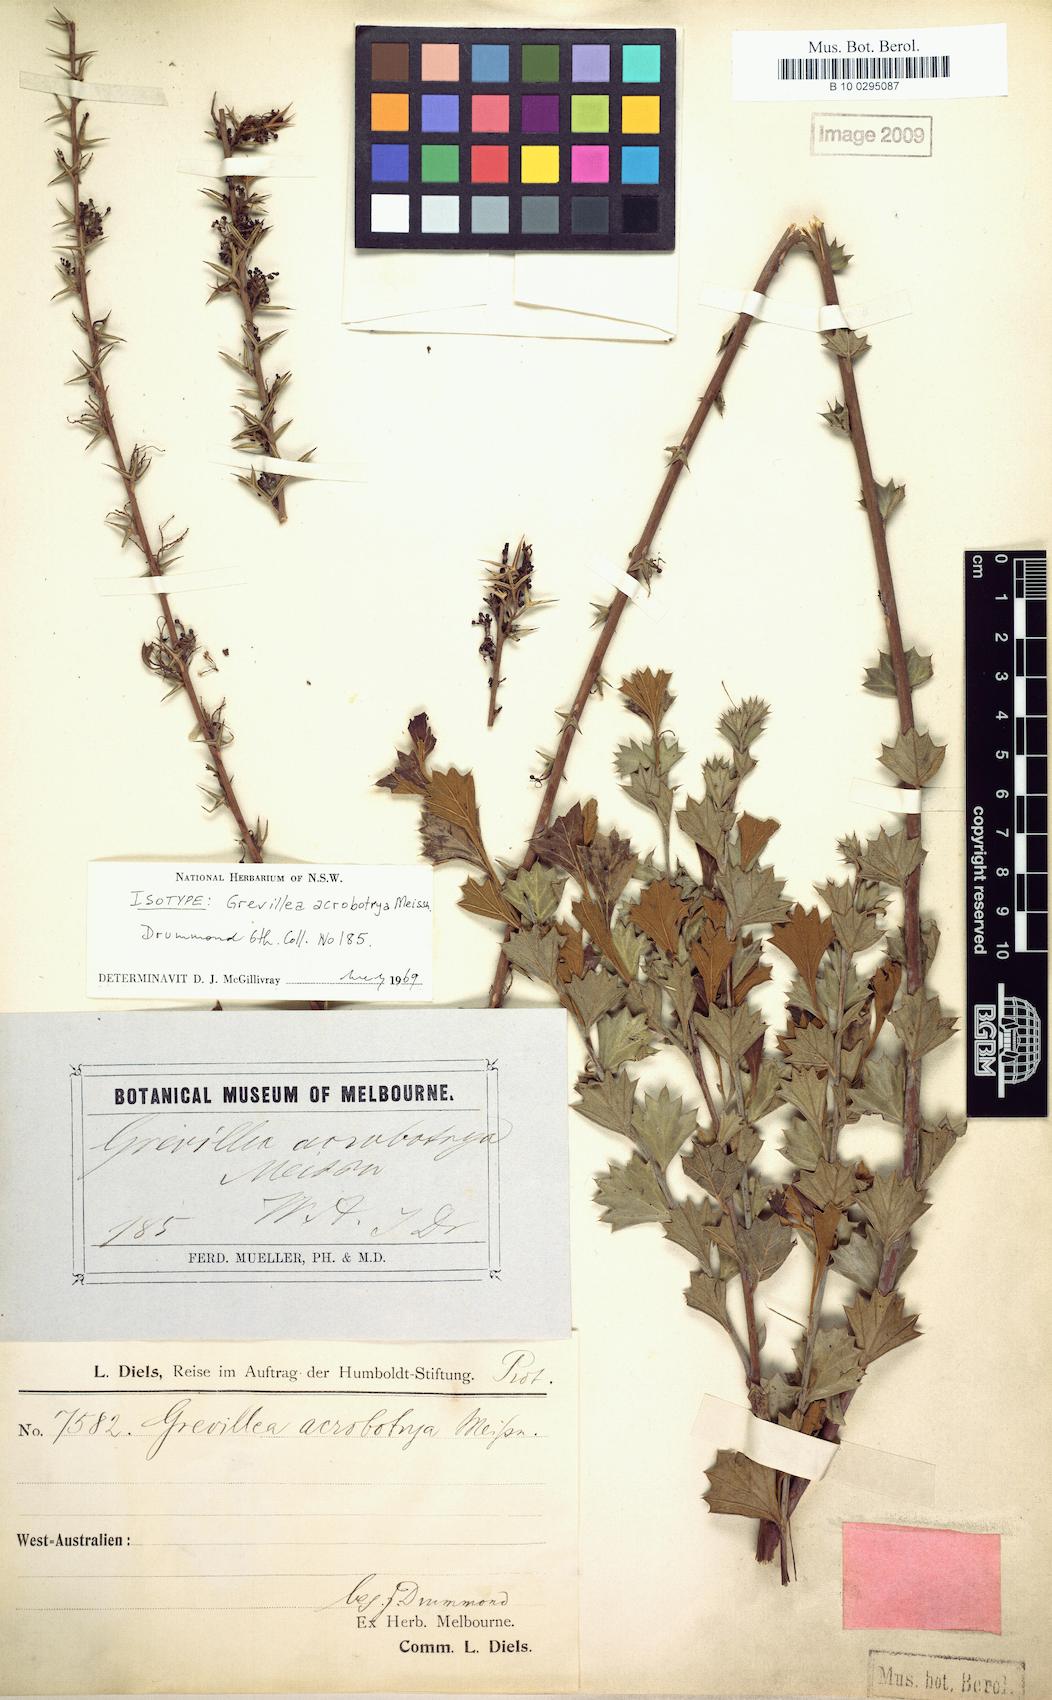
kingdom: Plantae
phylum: Tracheophyta
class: Magnoliopsida
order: Proteales
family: Proteaceae
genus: Grevillea
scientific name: Grevillea acrobotrya
